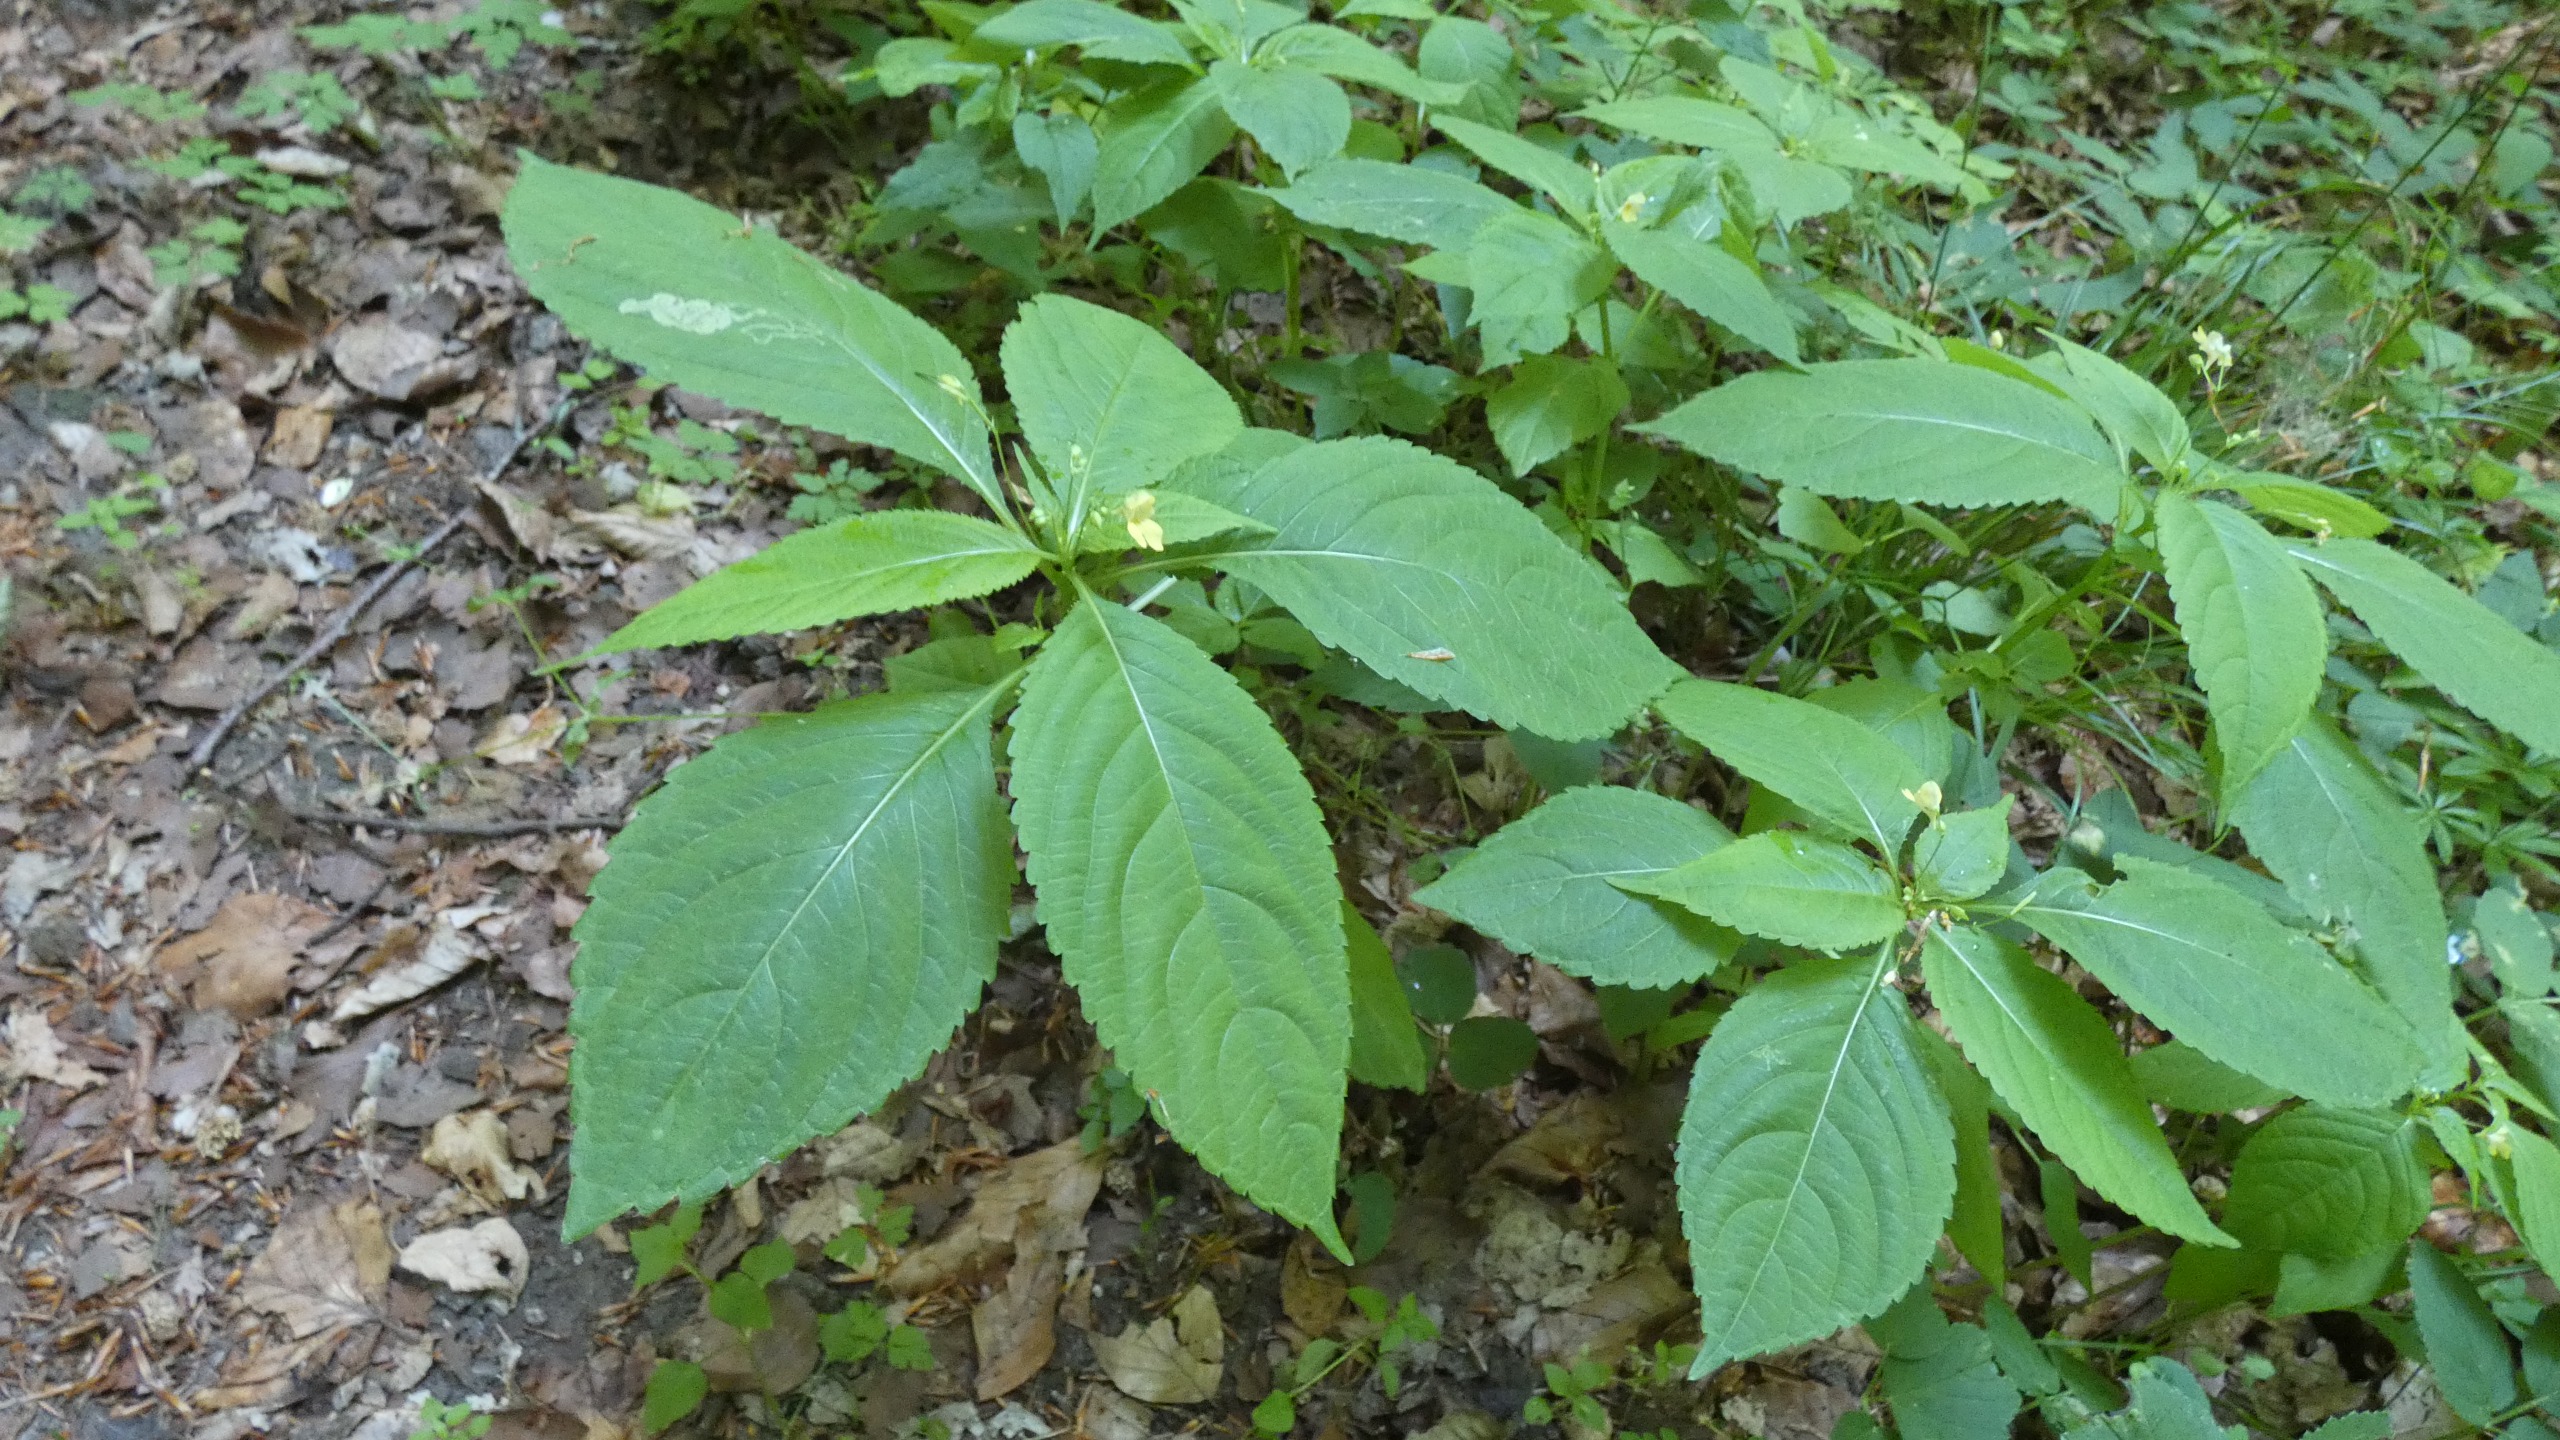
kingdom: Plantae
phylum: Tracheophyta
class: Magnoliopsida
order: Ericales
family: Balsaminaceae
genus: Impatiens
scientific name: Impatiens parviflora
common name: Småblomstret balsamin
